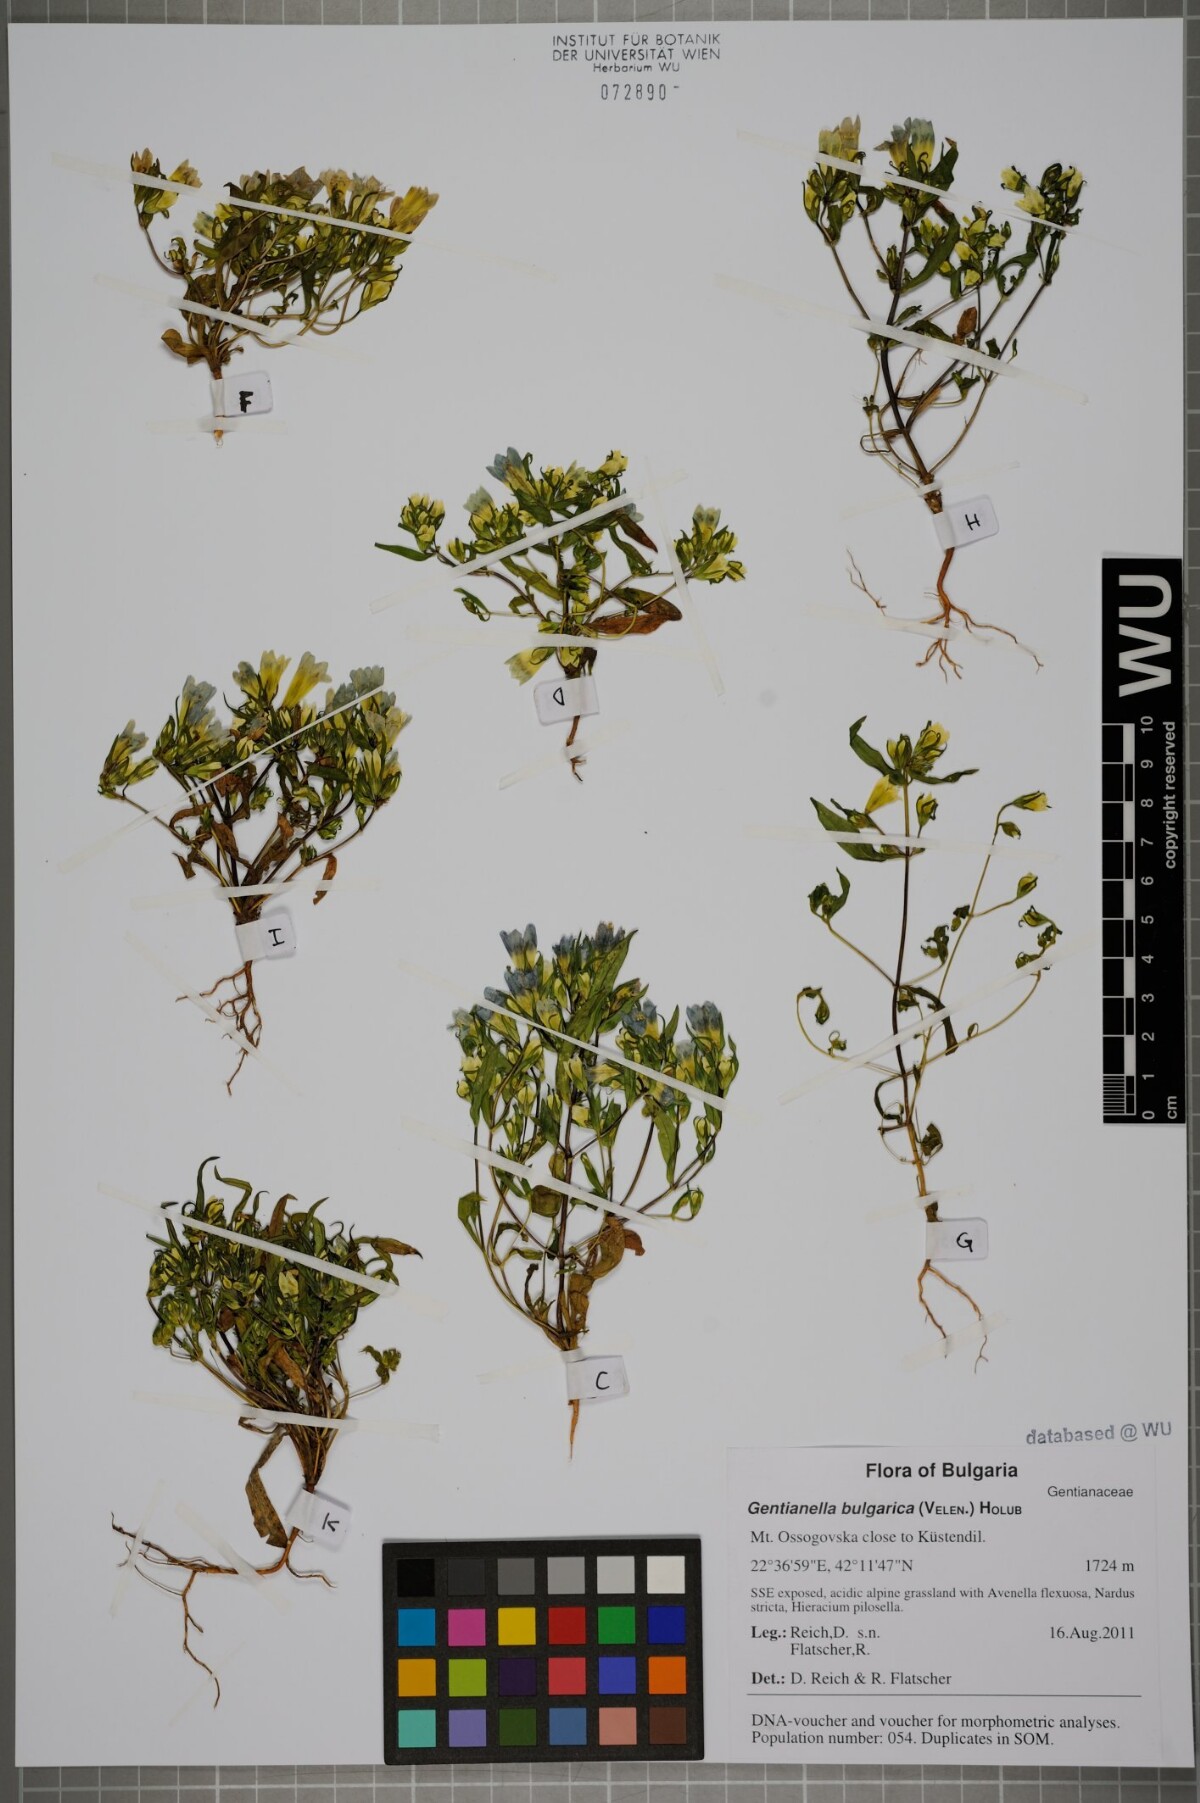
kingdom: Plantae
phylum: Tracheophyta
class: Magnoliopsida
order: Gentianales
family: Gentianaceae
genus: Gentianella
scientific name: Gentianella bulgarica
